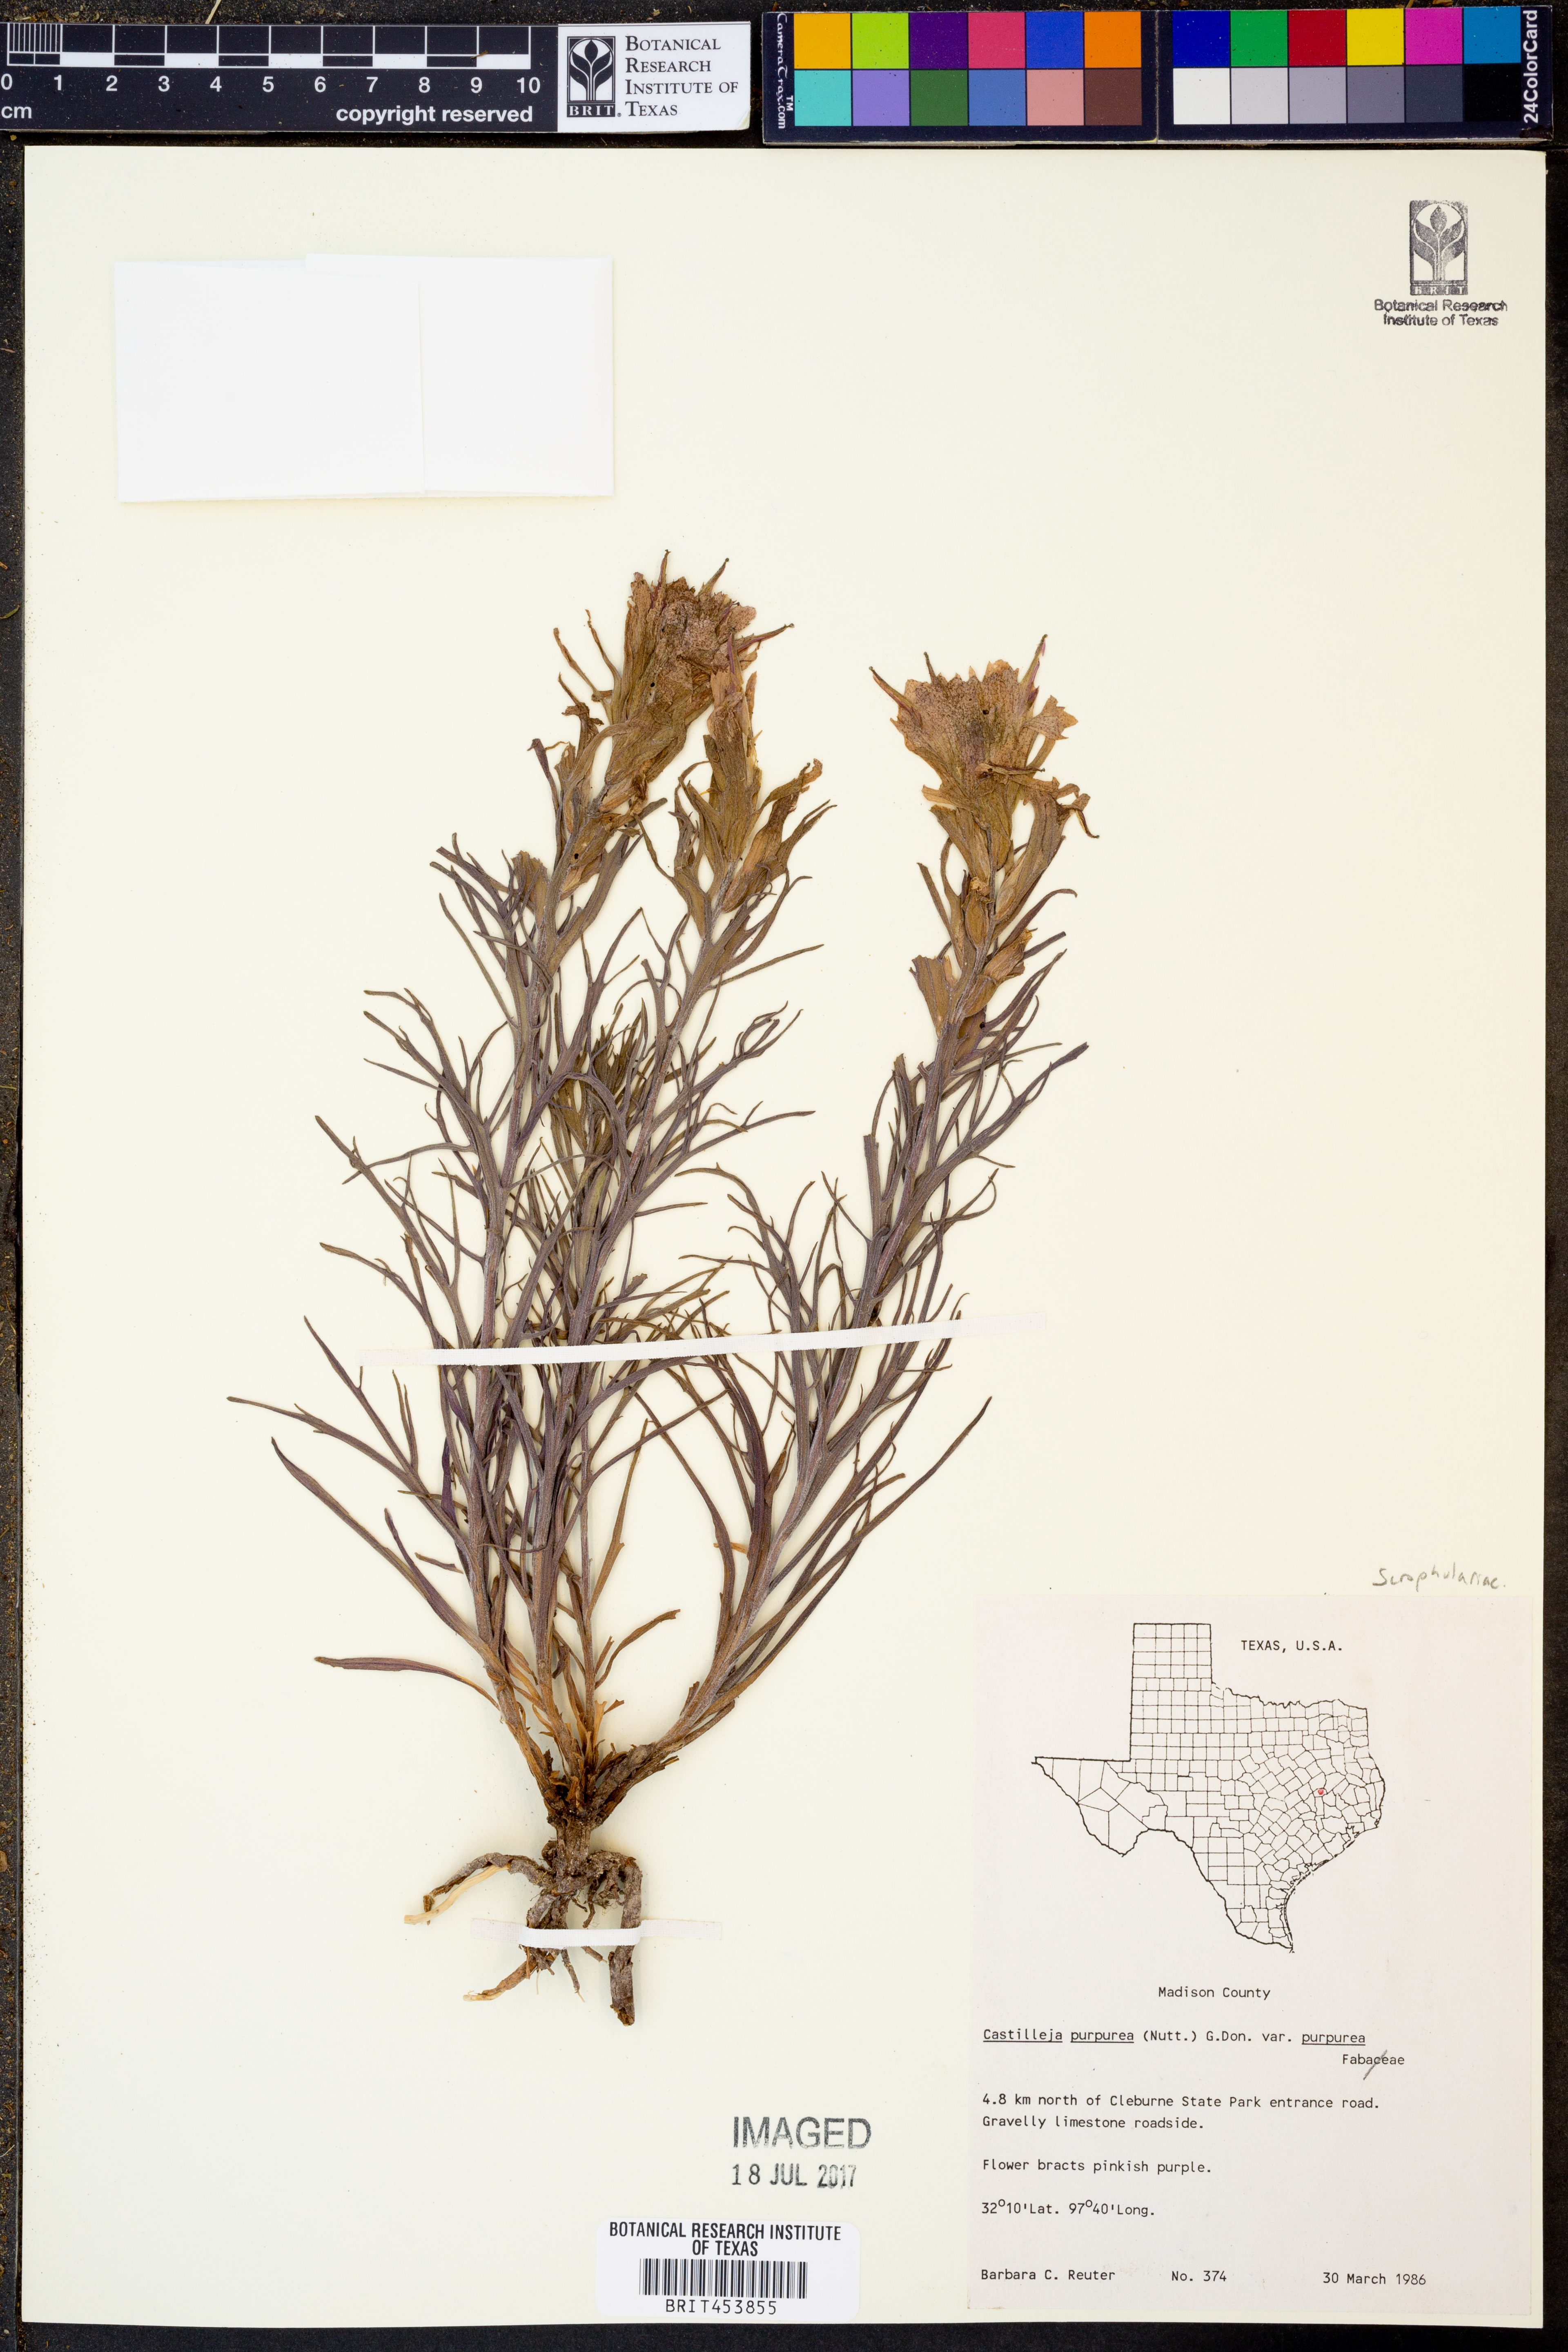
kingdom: Plantae
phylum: Tracheophyta
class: Magnoliopsida
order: Lamiales
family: Orobanchaceae
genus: Castilleja
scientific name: Castilleja purpurea
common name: Plains paintbrush
